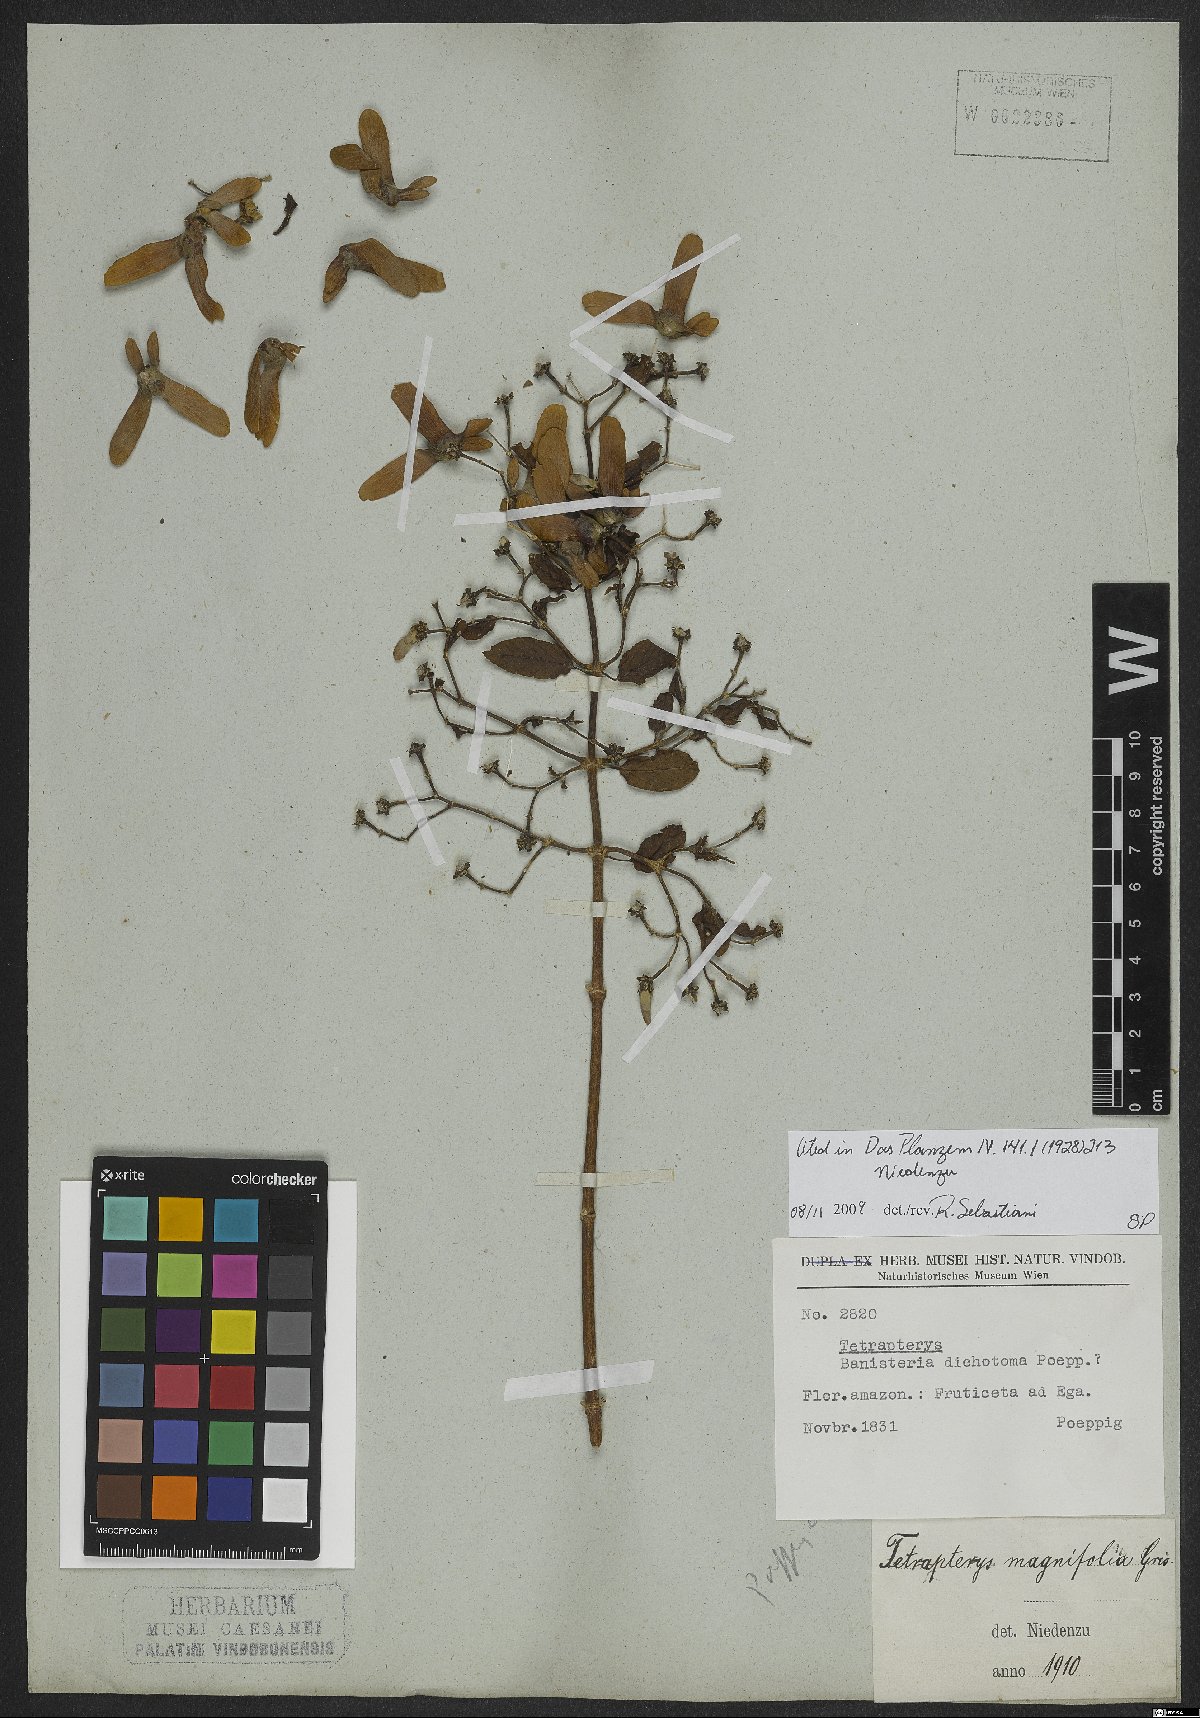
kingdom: Plantae
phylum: Tracheophyta
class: Magnoliopsida
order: Malpighiales
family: Malpighiaceae
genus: Tetrapterys
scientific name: Tetrapterys magnifolia
